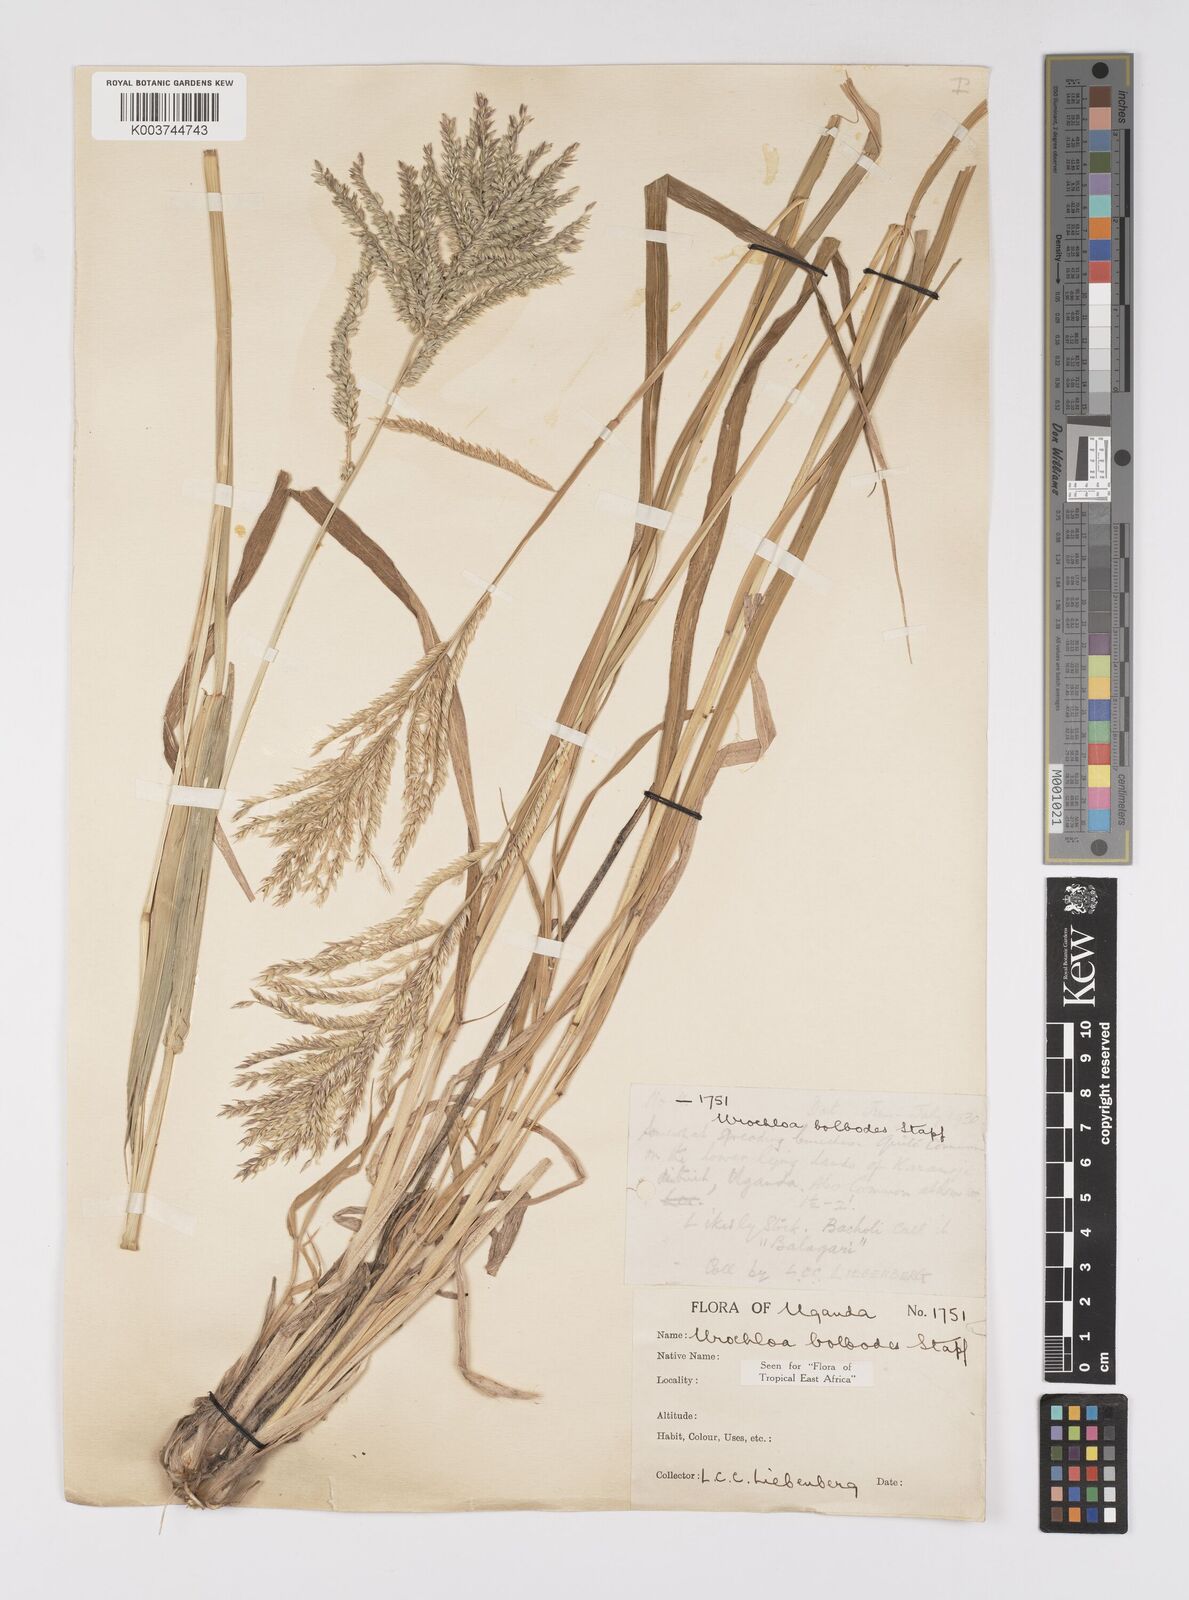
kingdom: Plantae
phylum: Tracheophyta
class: Liliopsida
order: Poales
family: Poaceae
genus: Urochloa
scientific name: Urochloa oligotricha
